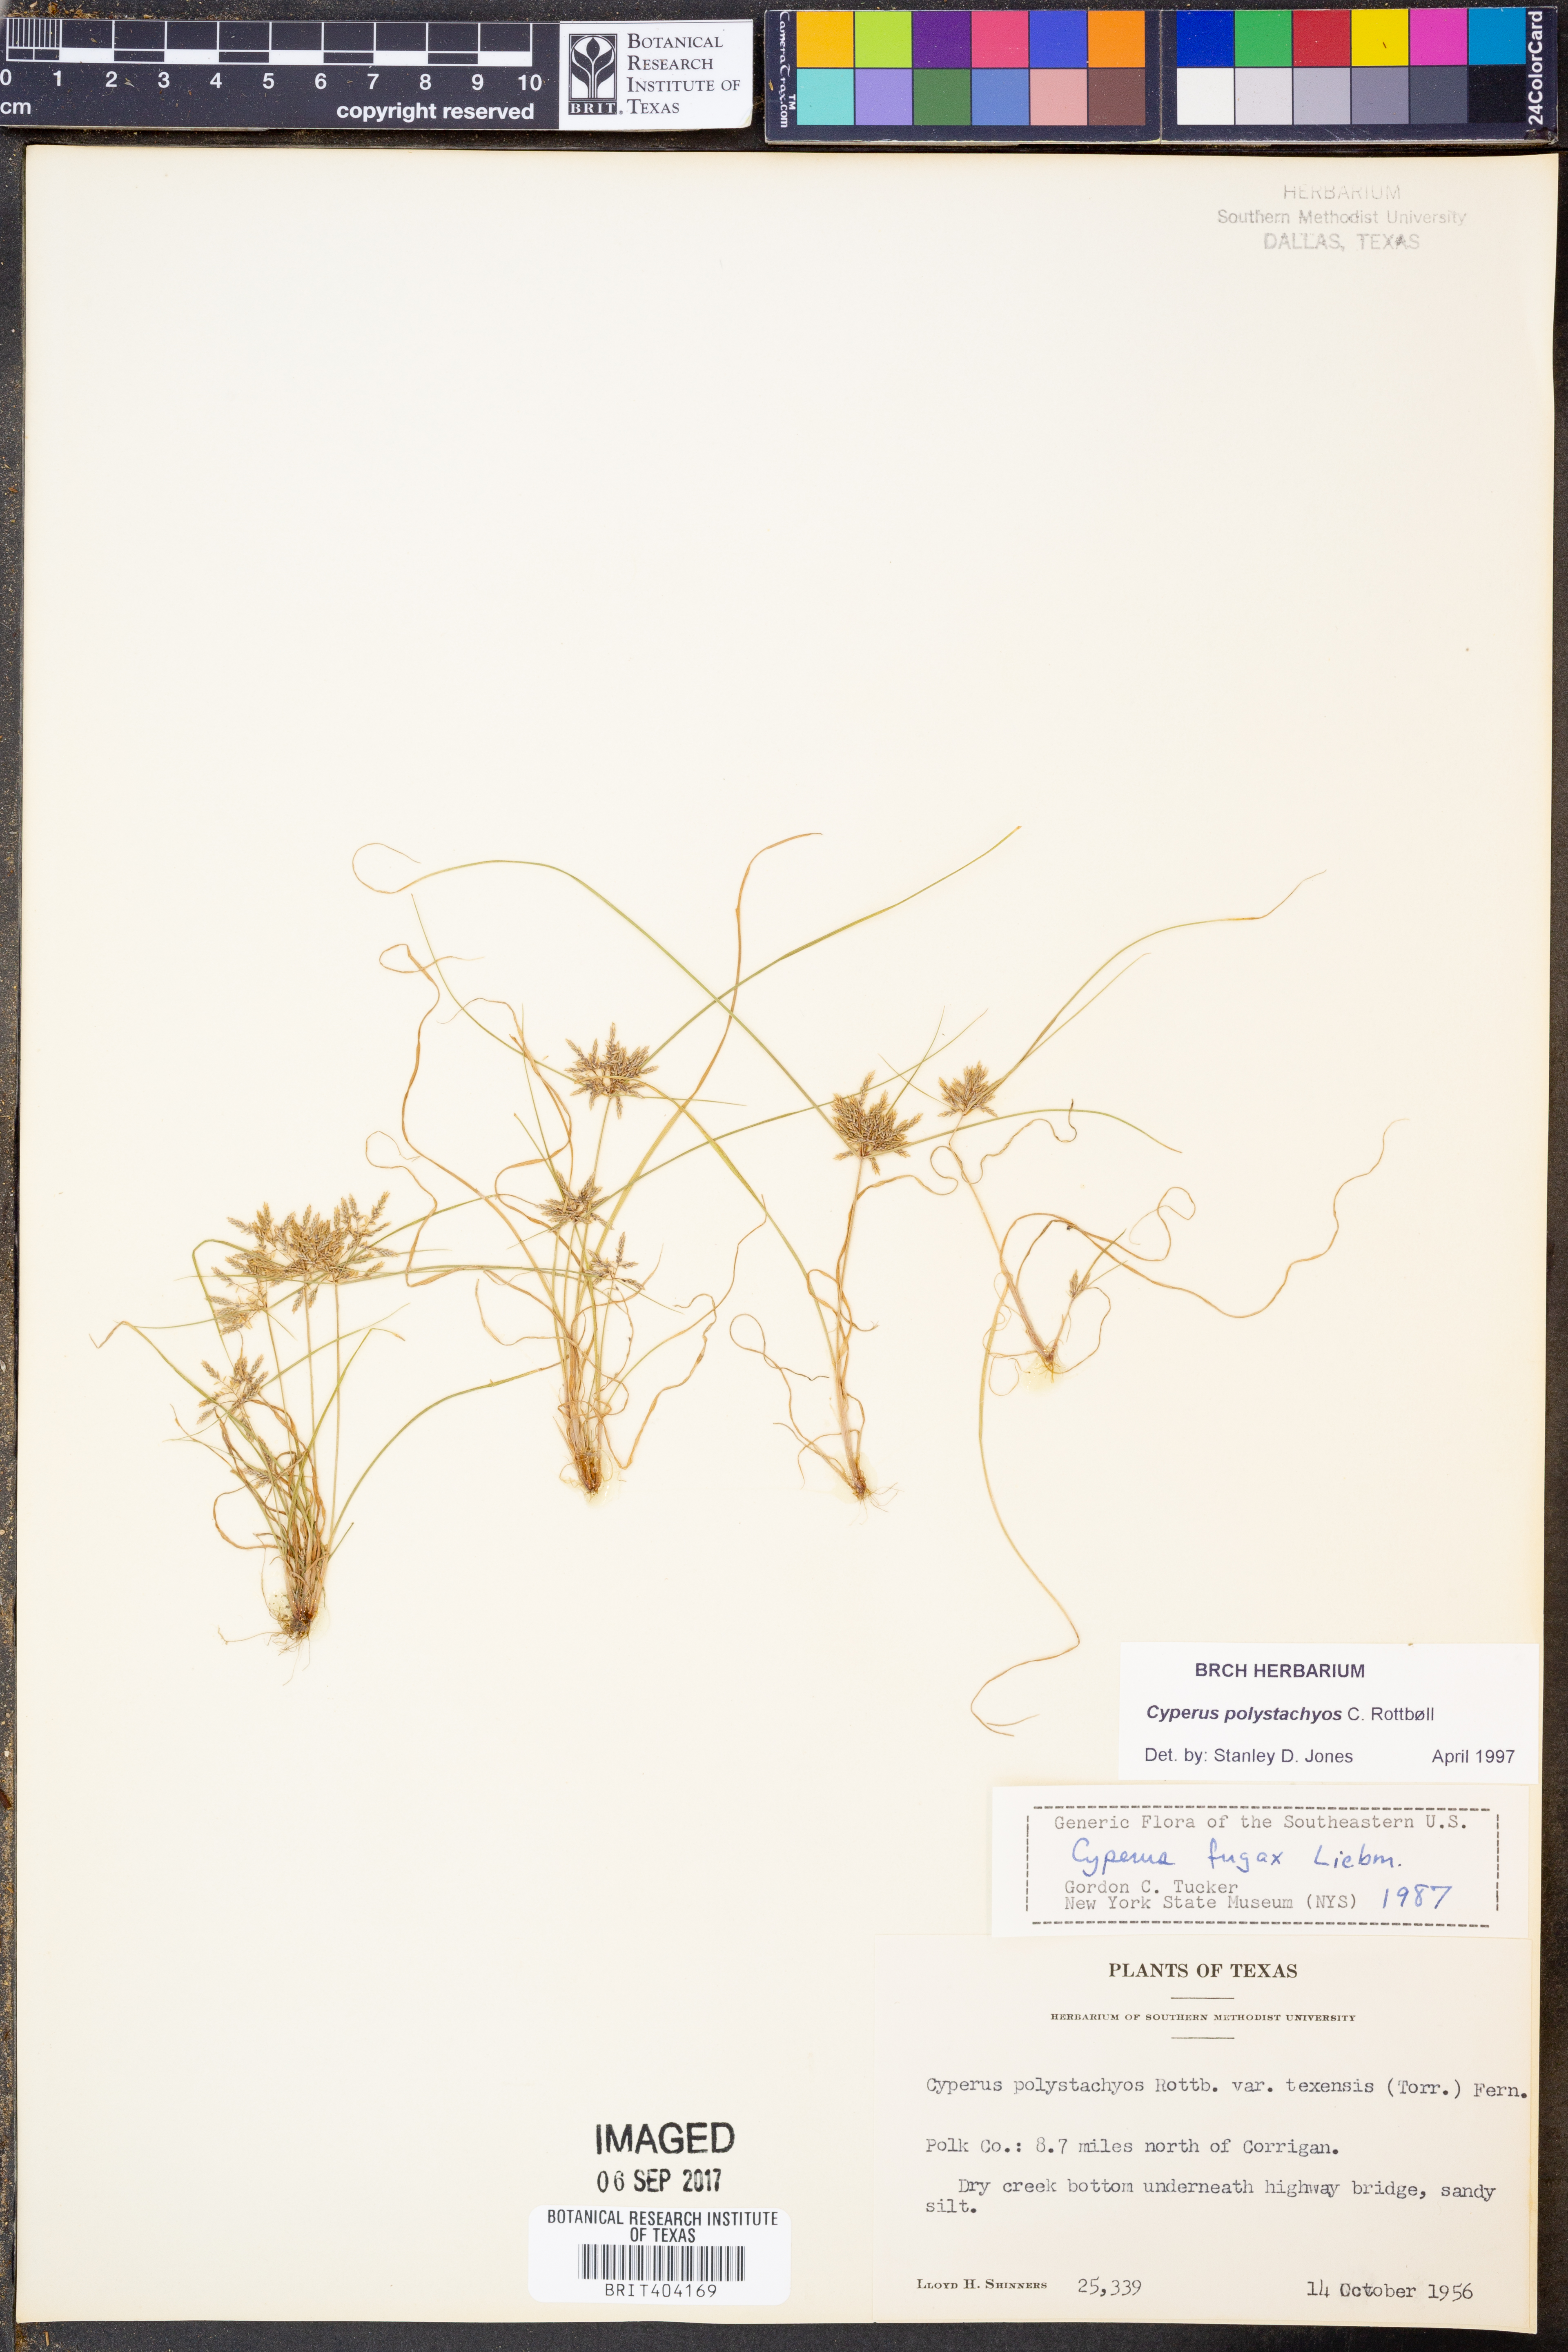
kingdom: Plantae
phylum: Tracheophyta
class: Liliopsida
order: Poales
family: Cyperaceae
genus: Cyperus
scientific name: Cyperus polystachyos
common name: Bunchy flat sedge
